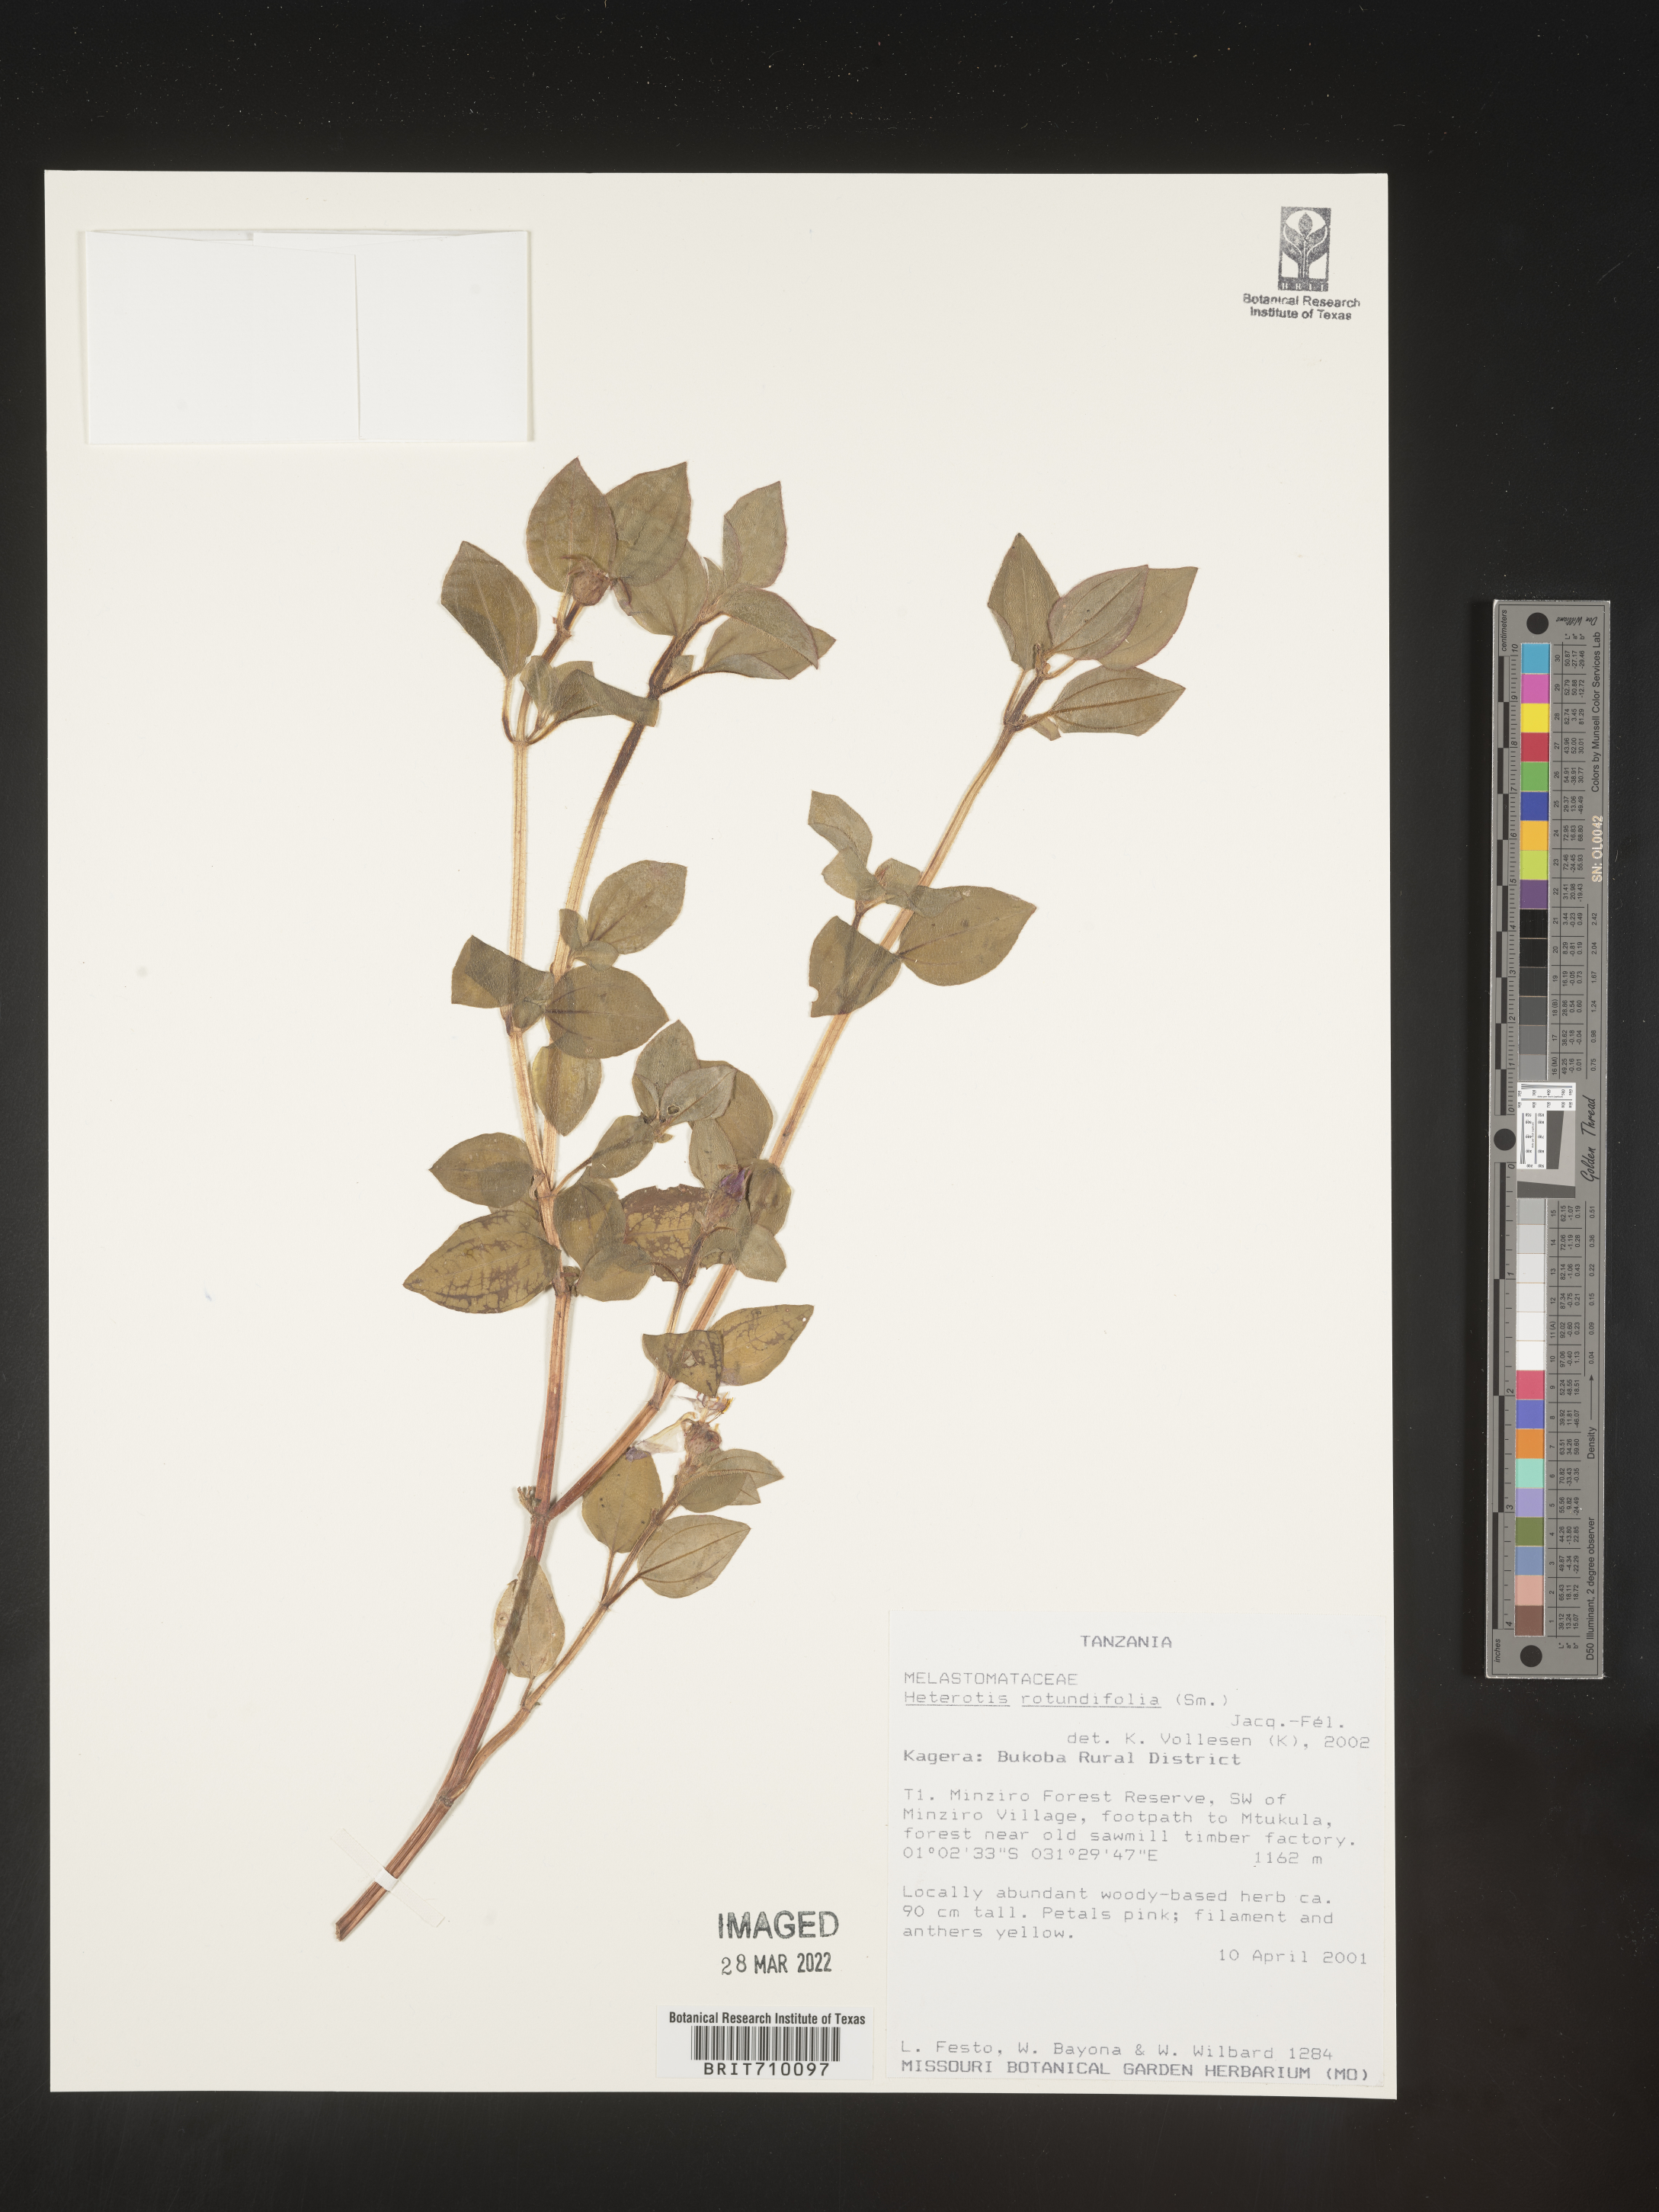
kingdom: Plantae
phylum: Tracheophyta
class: Magnoliopsida
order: Myrtales
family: Melastomataceae
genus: Heterotis
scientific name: Heterotis
